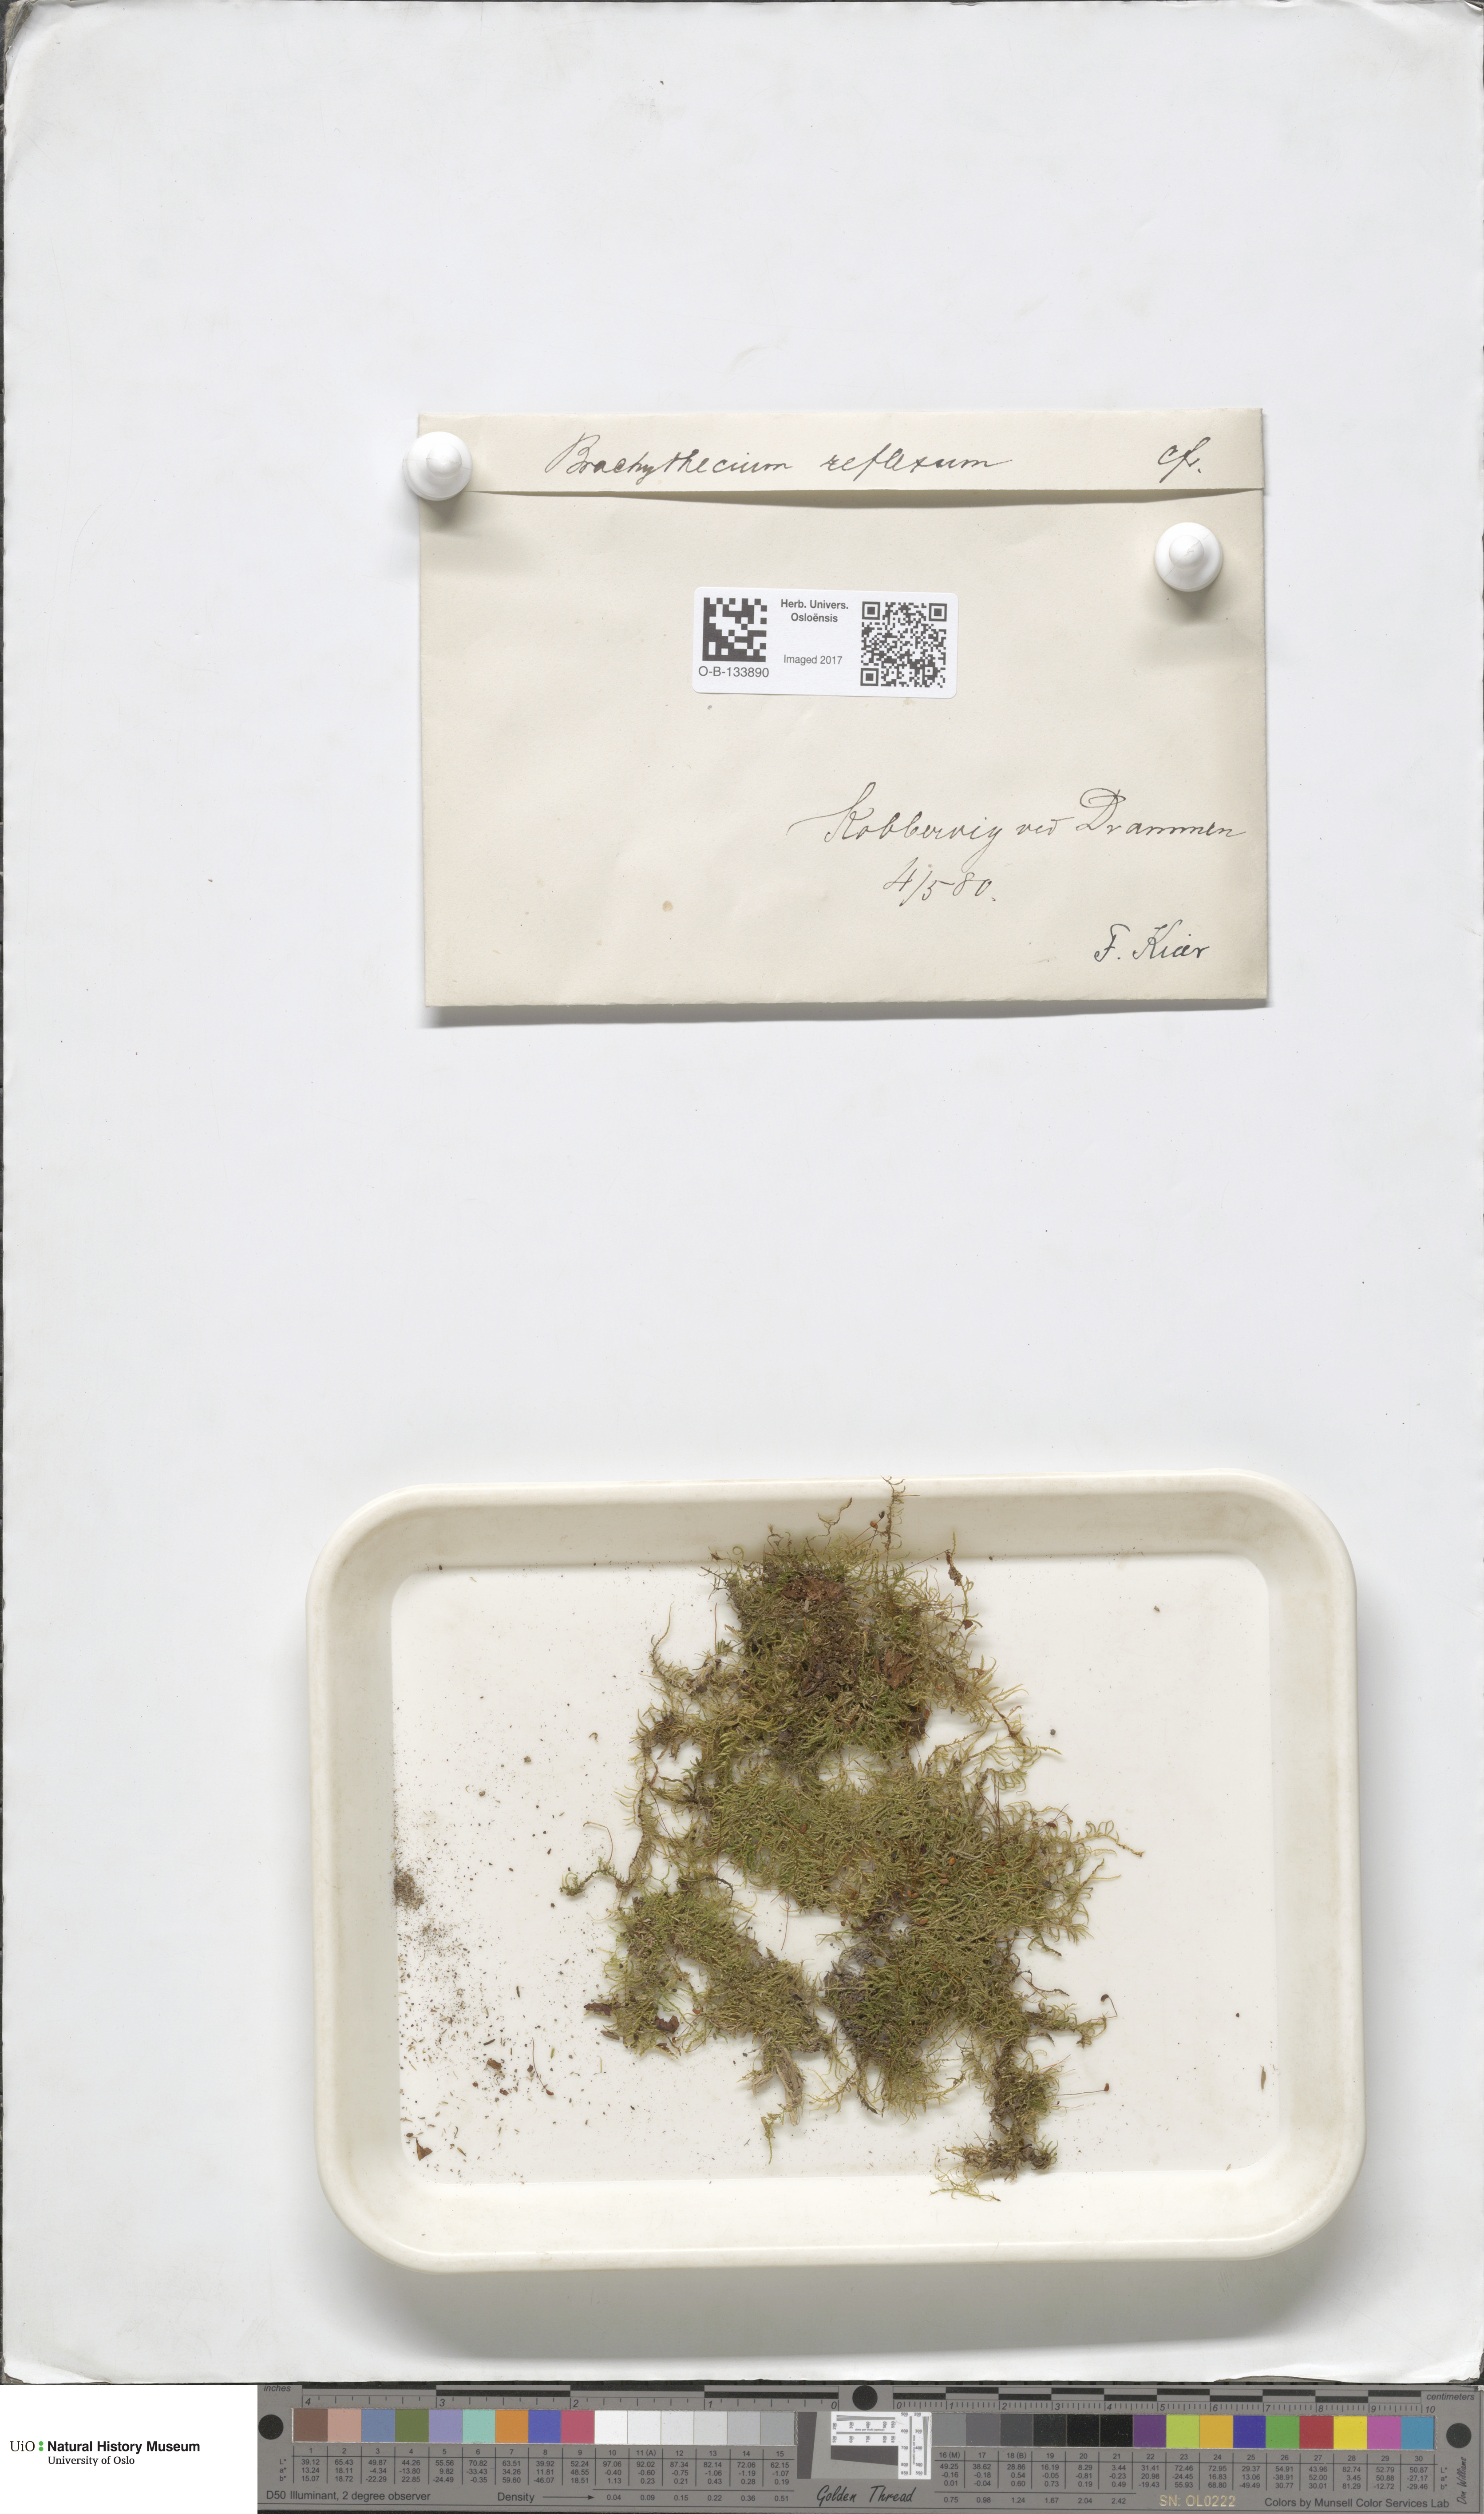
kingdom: Plantae
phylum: Bryophyta
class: Bryopsida
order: Hypnales
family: Brachytheciaceae
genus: Sciuro-hypnum
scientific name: Sciuro-hypnum reflexum
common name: Reflexed feather-moss
